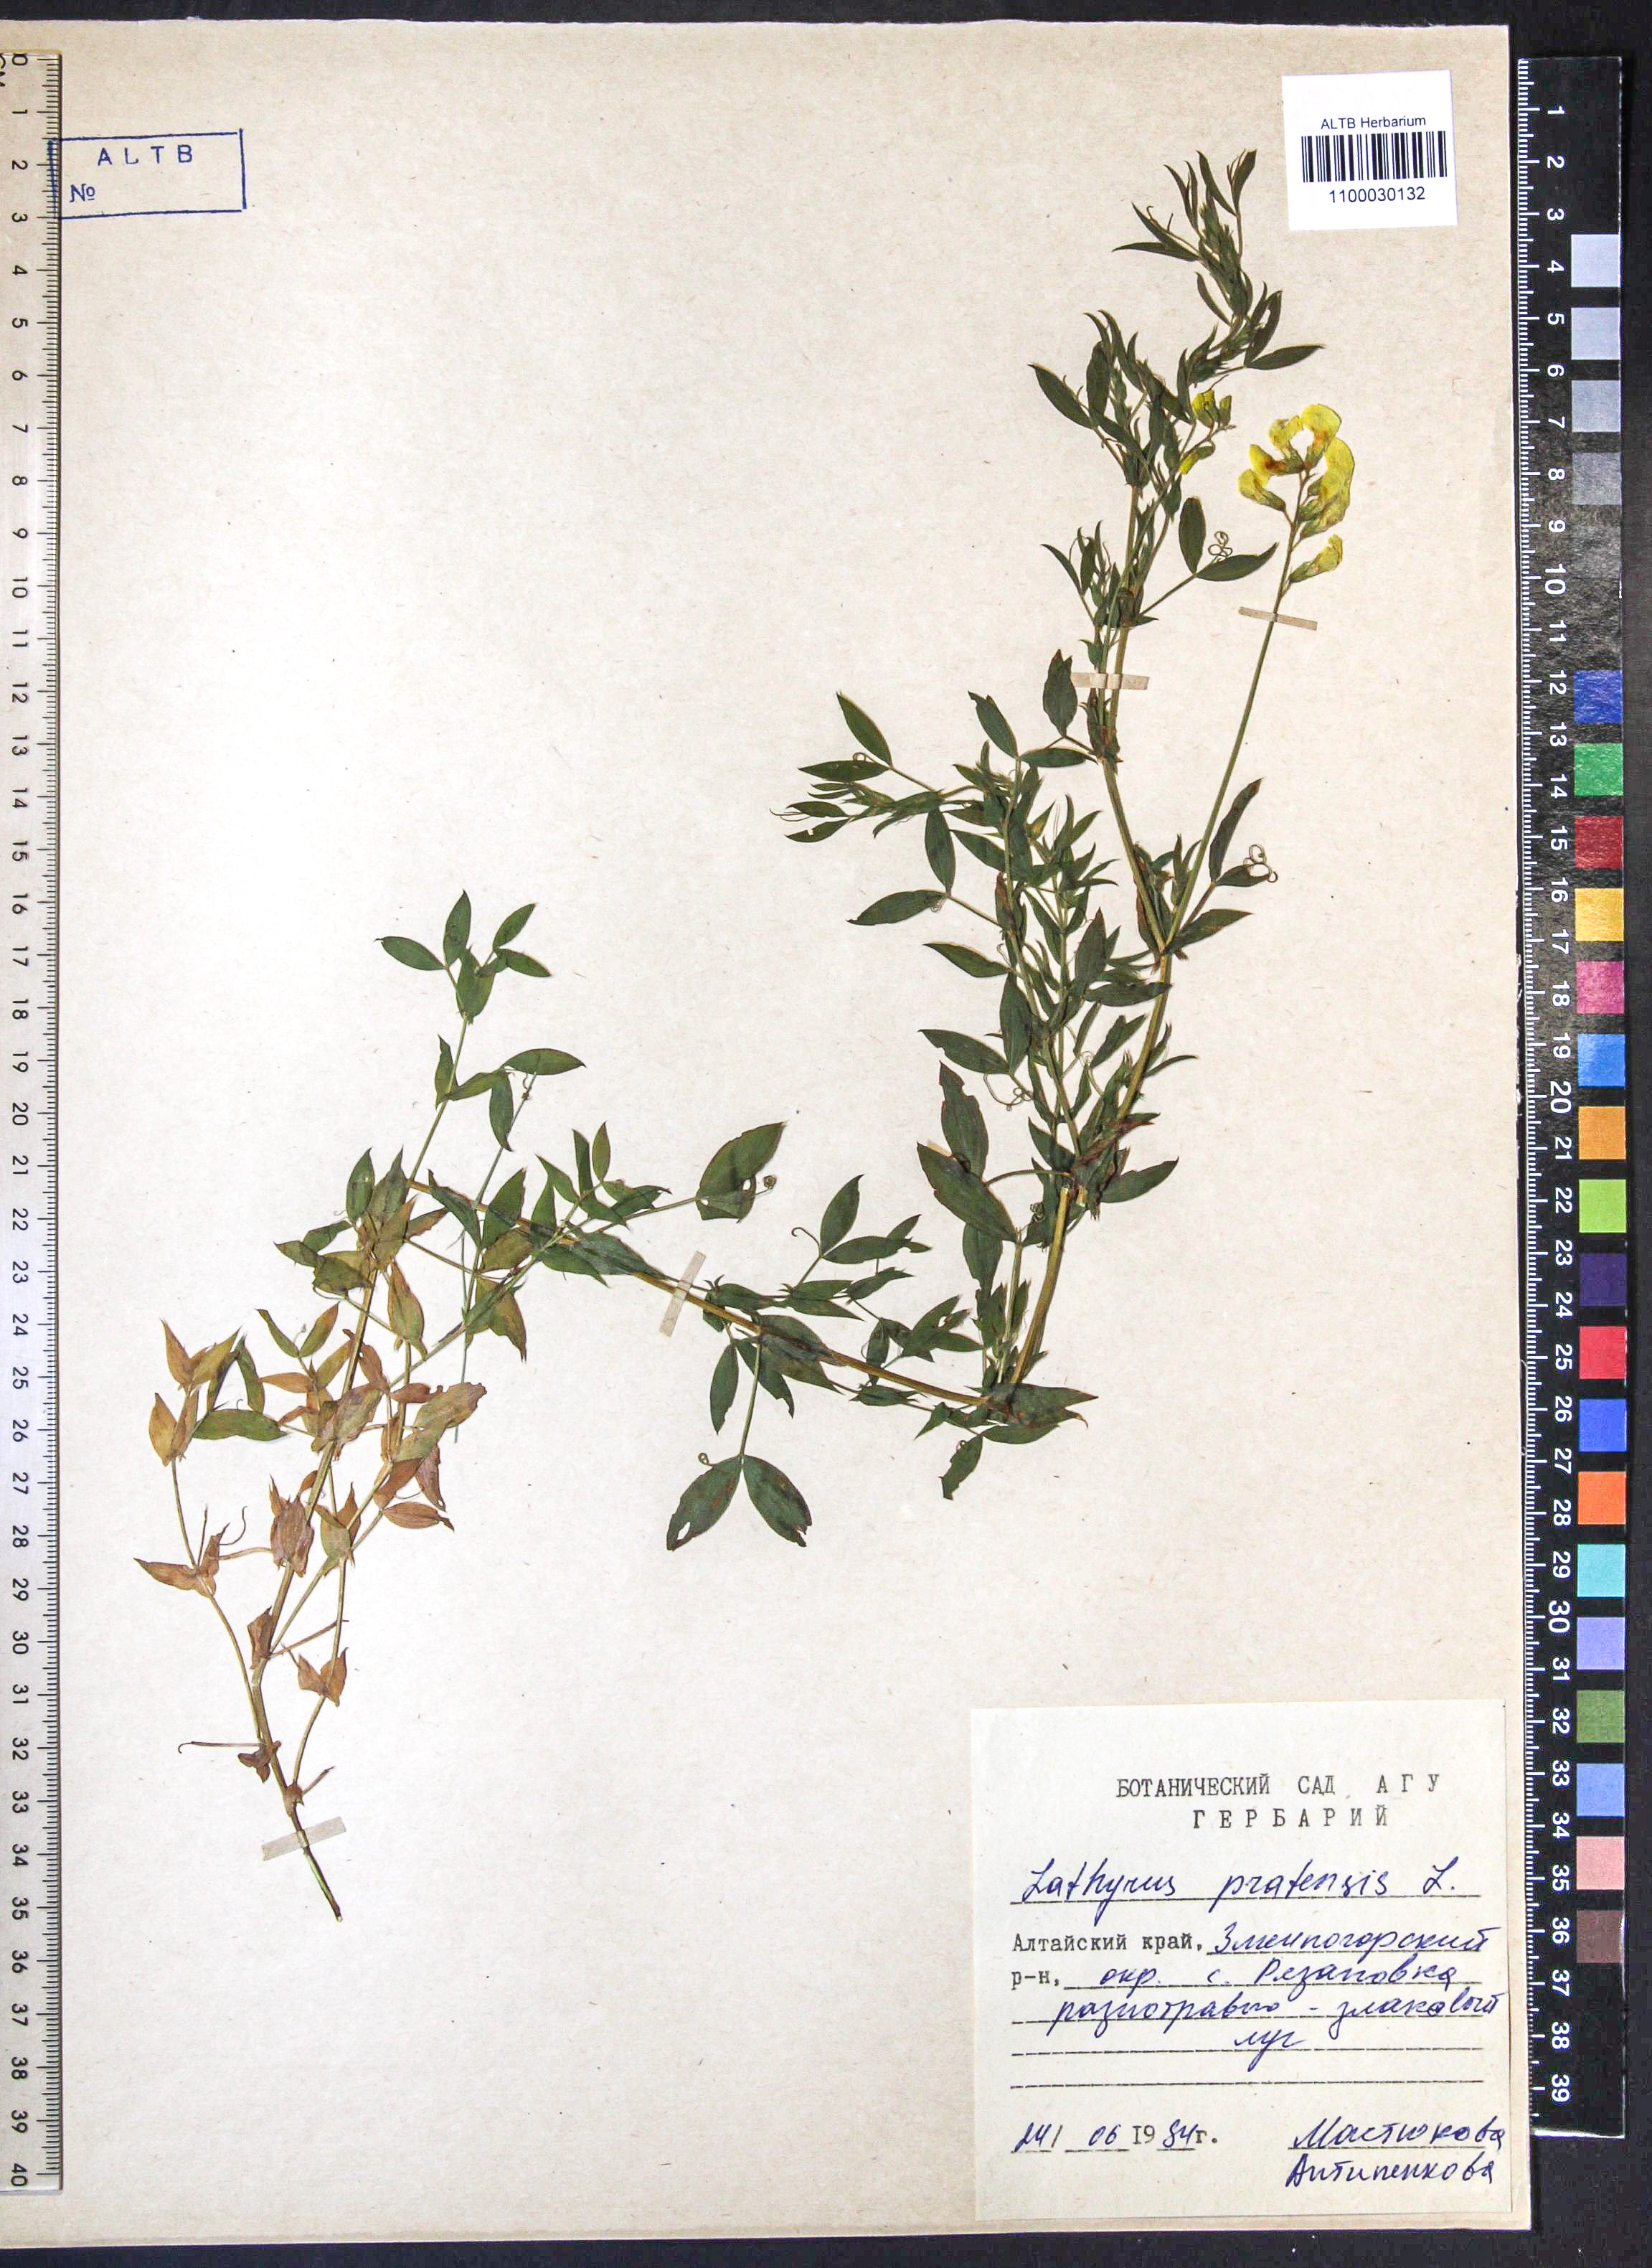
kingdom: Plantae
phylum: Tracheophyta
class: Magnoliopsida
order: Fabales
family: Fabaceae
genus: Lathyrus
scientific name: Lathyrus pratensis
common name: Meadow vetchling
